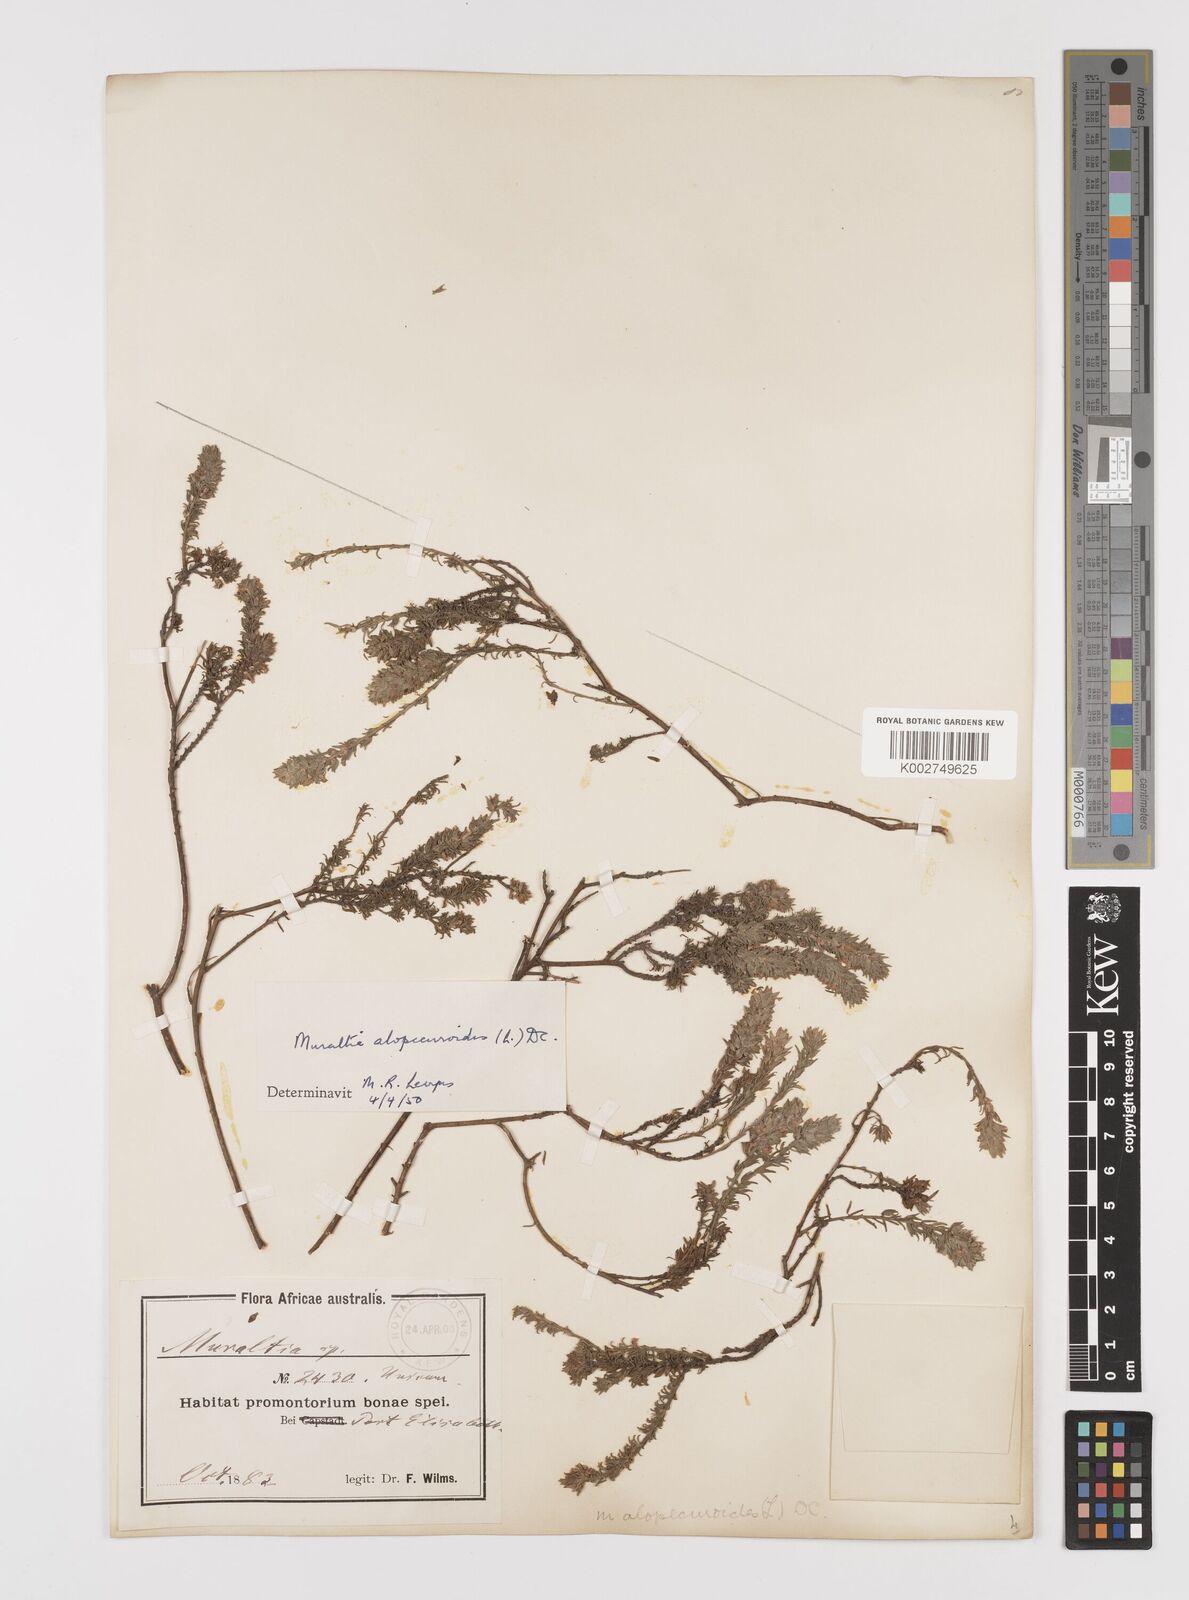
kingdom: Plantae
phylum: Tracheophyta
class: Magnoliopsida
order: Fabales
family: Polygalaceae
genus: Muraltia
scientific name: Muraltia alopecuroides
